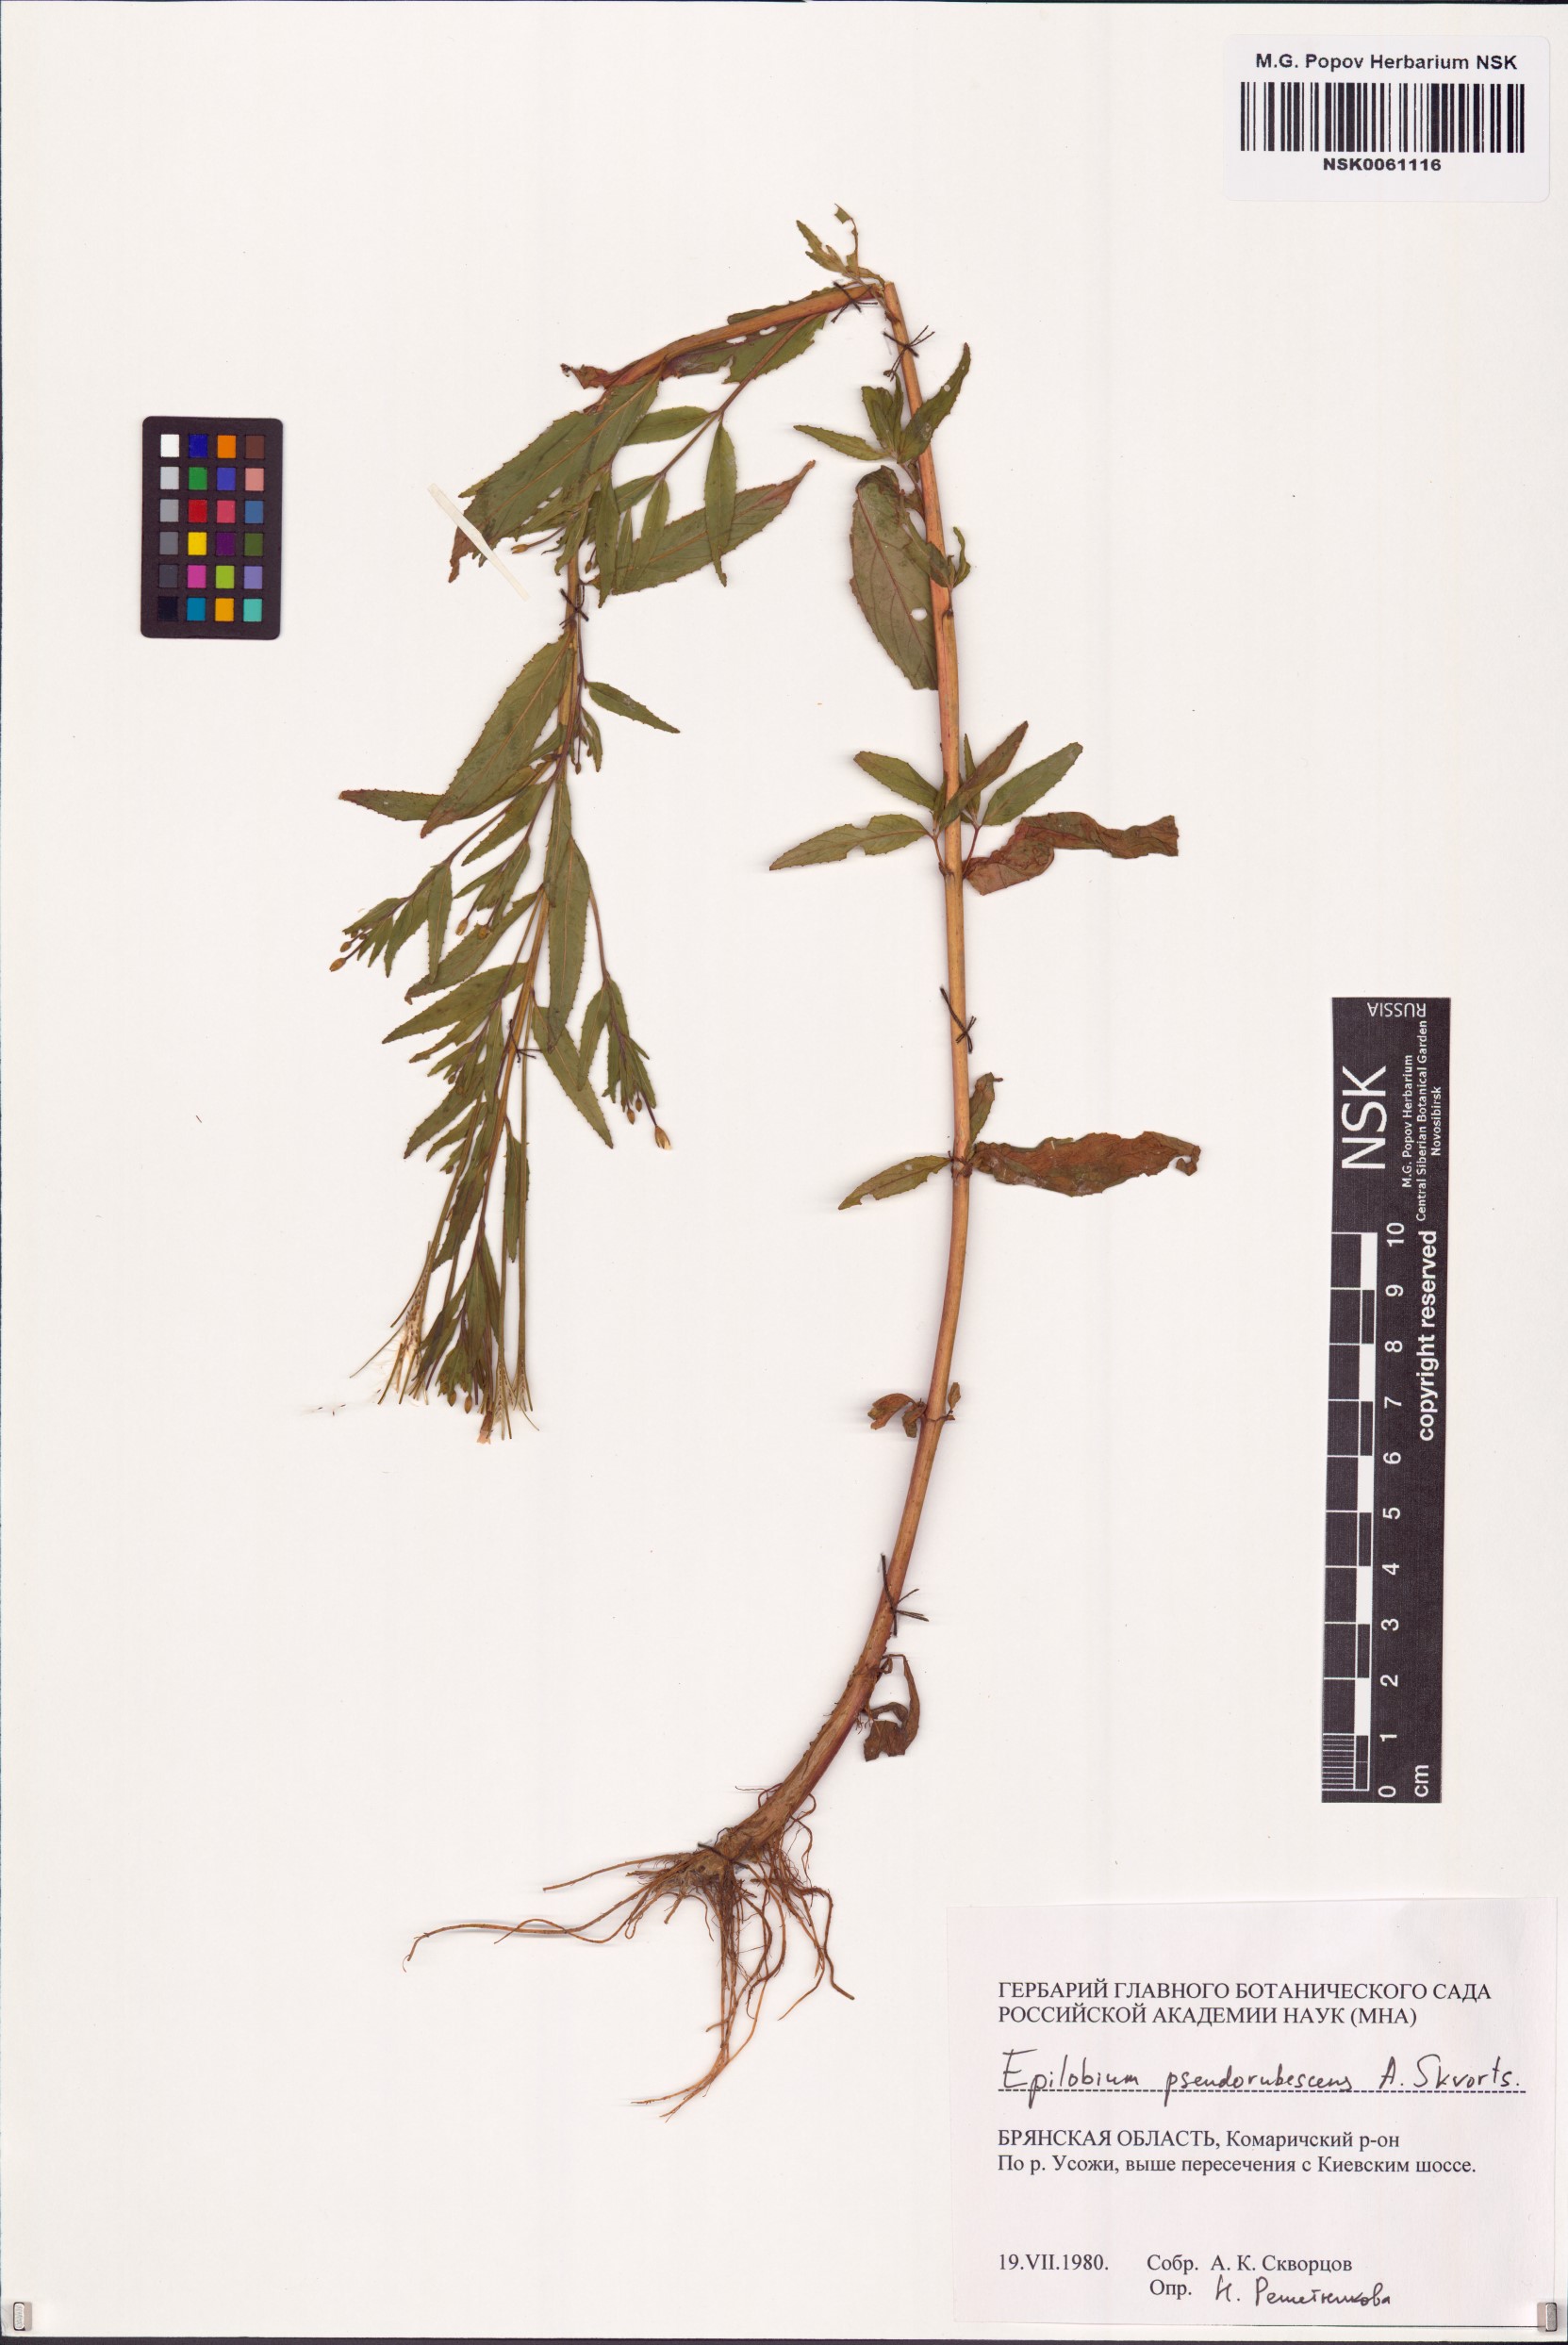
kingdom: Plantae
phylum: Tracheophyta
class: Magnoliopsida
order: Myrtales
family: Onagraceae
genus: Epilobium
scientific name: Epilobium pseudorubescens
